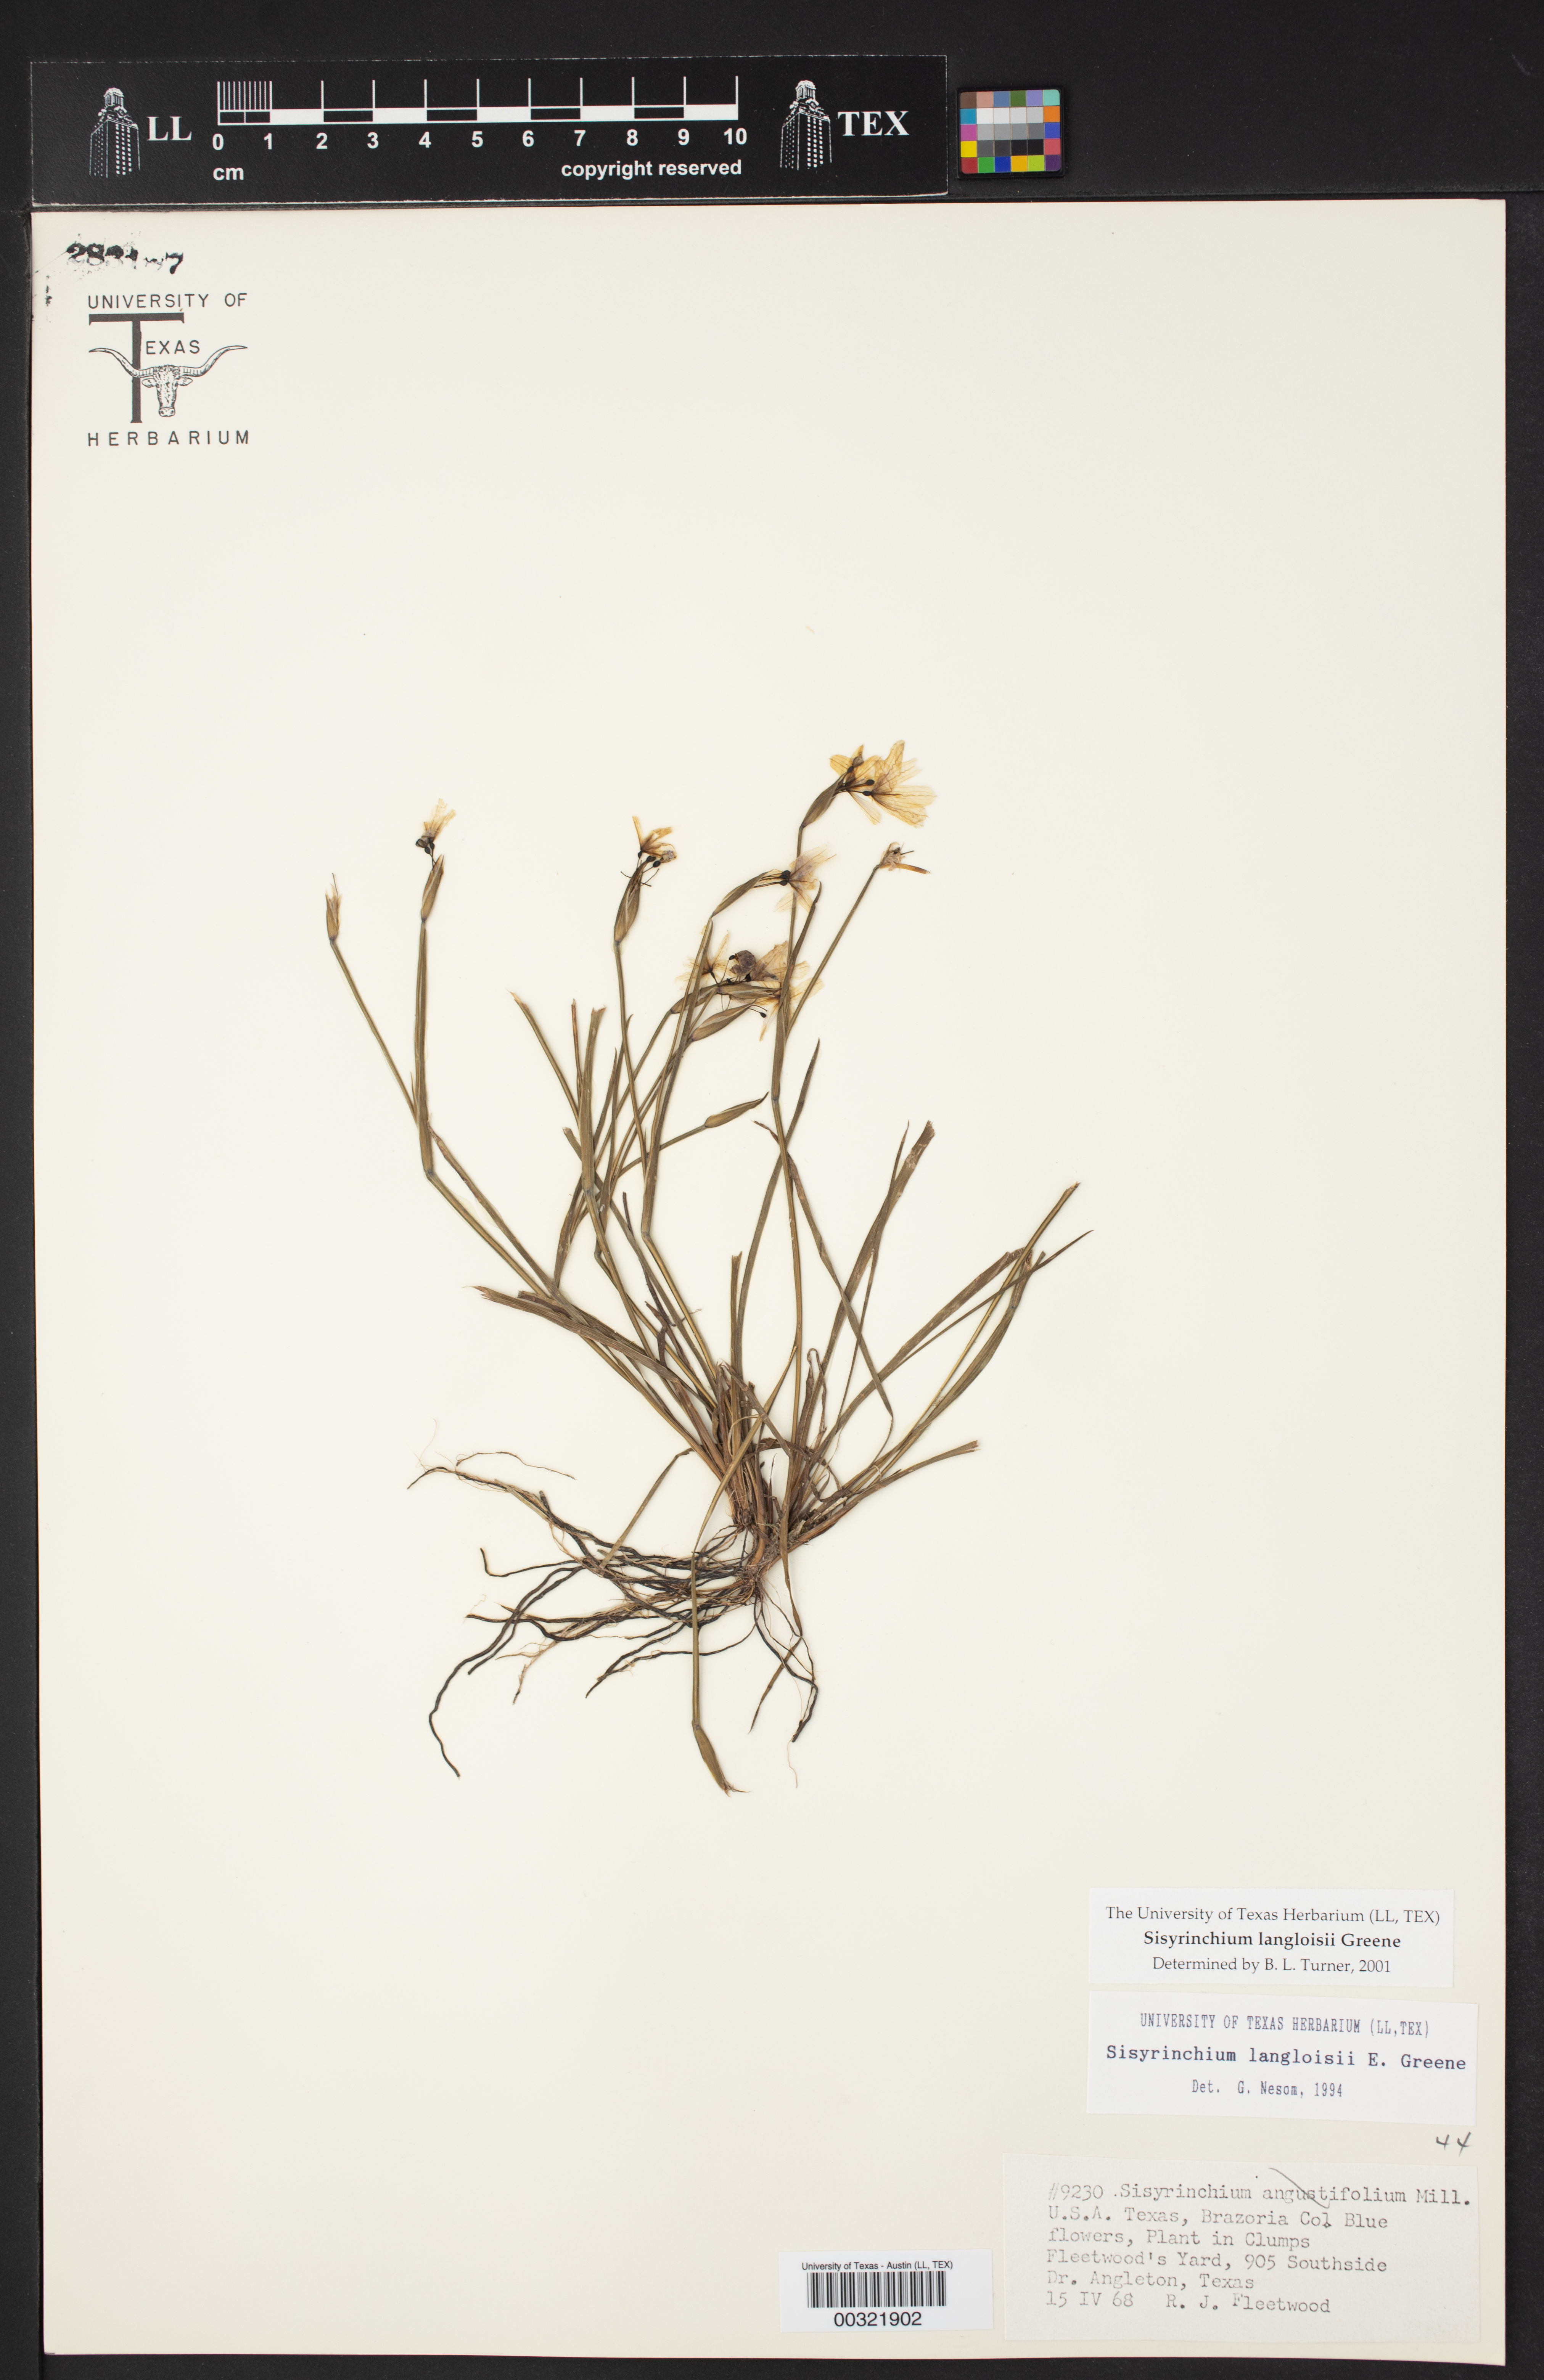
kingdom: Plantae
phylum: Tracheophyta
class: Liliopsida
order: Asparagales
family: Iridaceae
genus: Sisyrinchium
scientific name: Sisyrinchium langloisii
